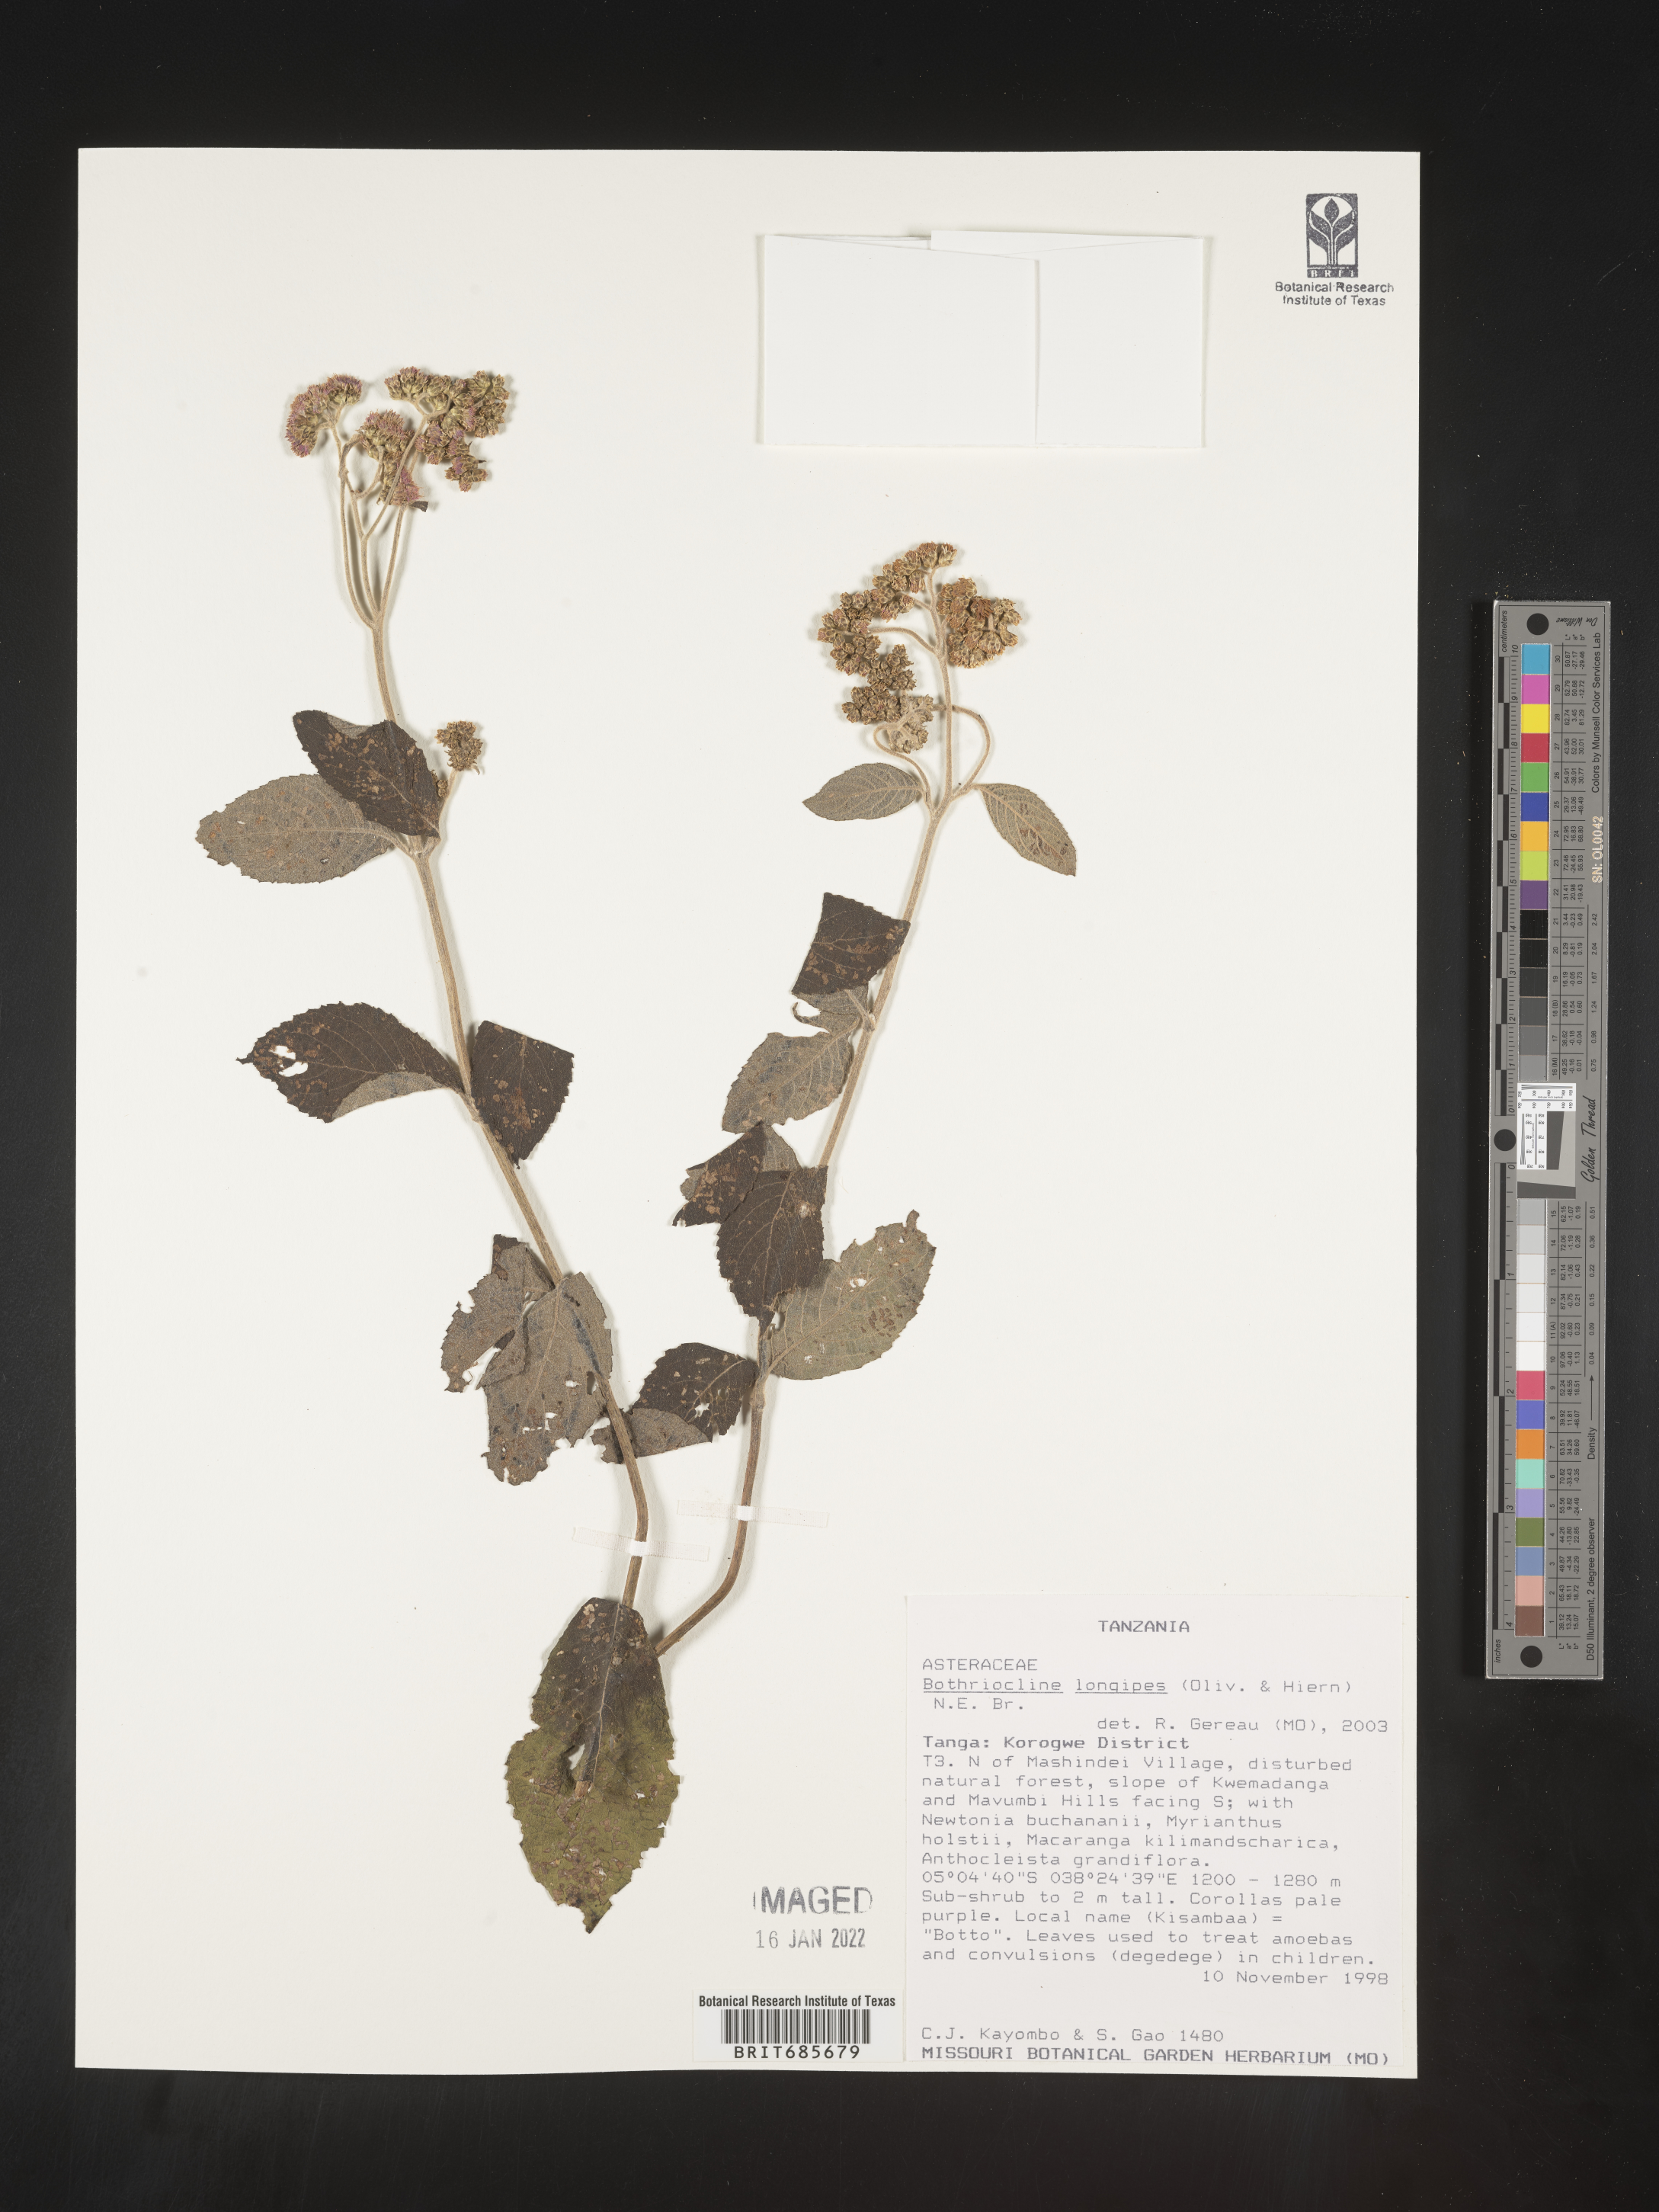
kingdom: Plantae
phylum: Tracheophyta
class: Magnoliopsida
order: Asterales
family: Asteraceae
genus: Bothriocline
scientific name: Bothriocline
